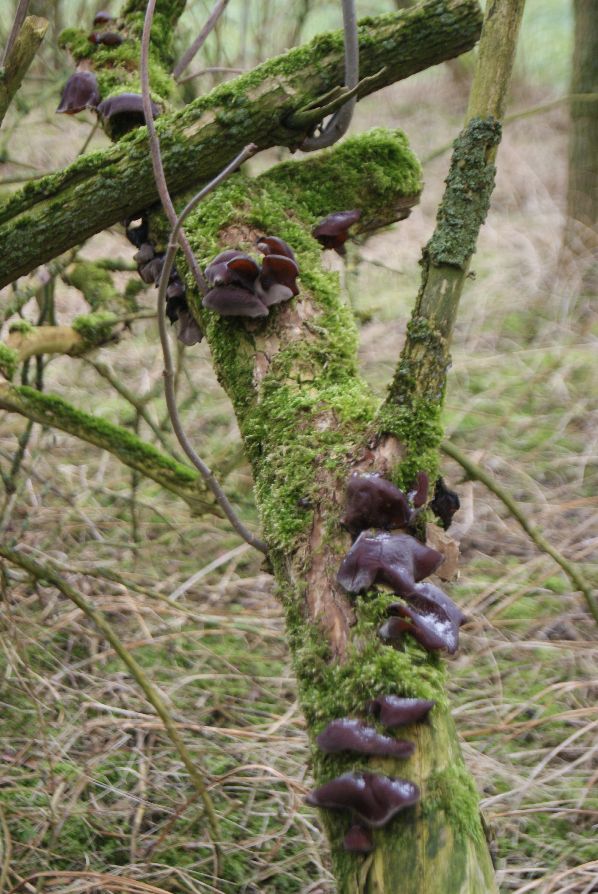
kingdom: Fungi
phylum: Basidiomycota
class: Agaricomycetes
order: Auriculariales
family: Auriculariaceae
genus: Auricularia
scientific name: Auricularia auricula-judae
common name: almindelig judasøre
